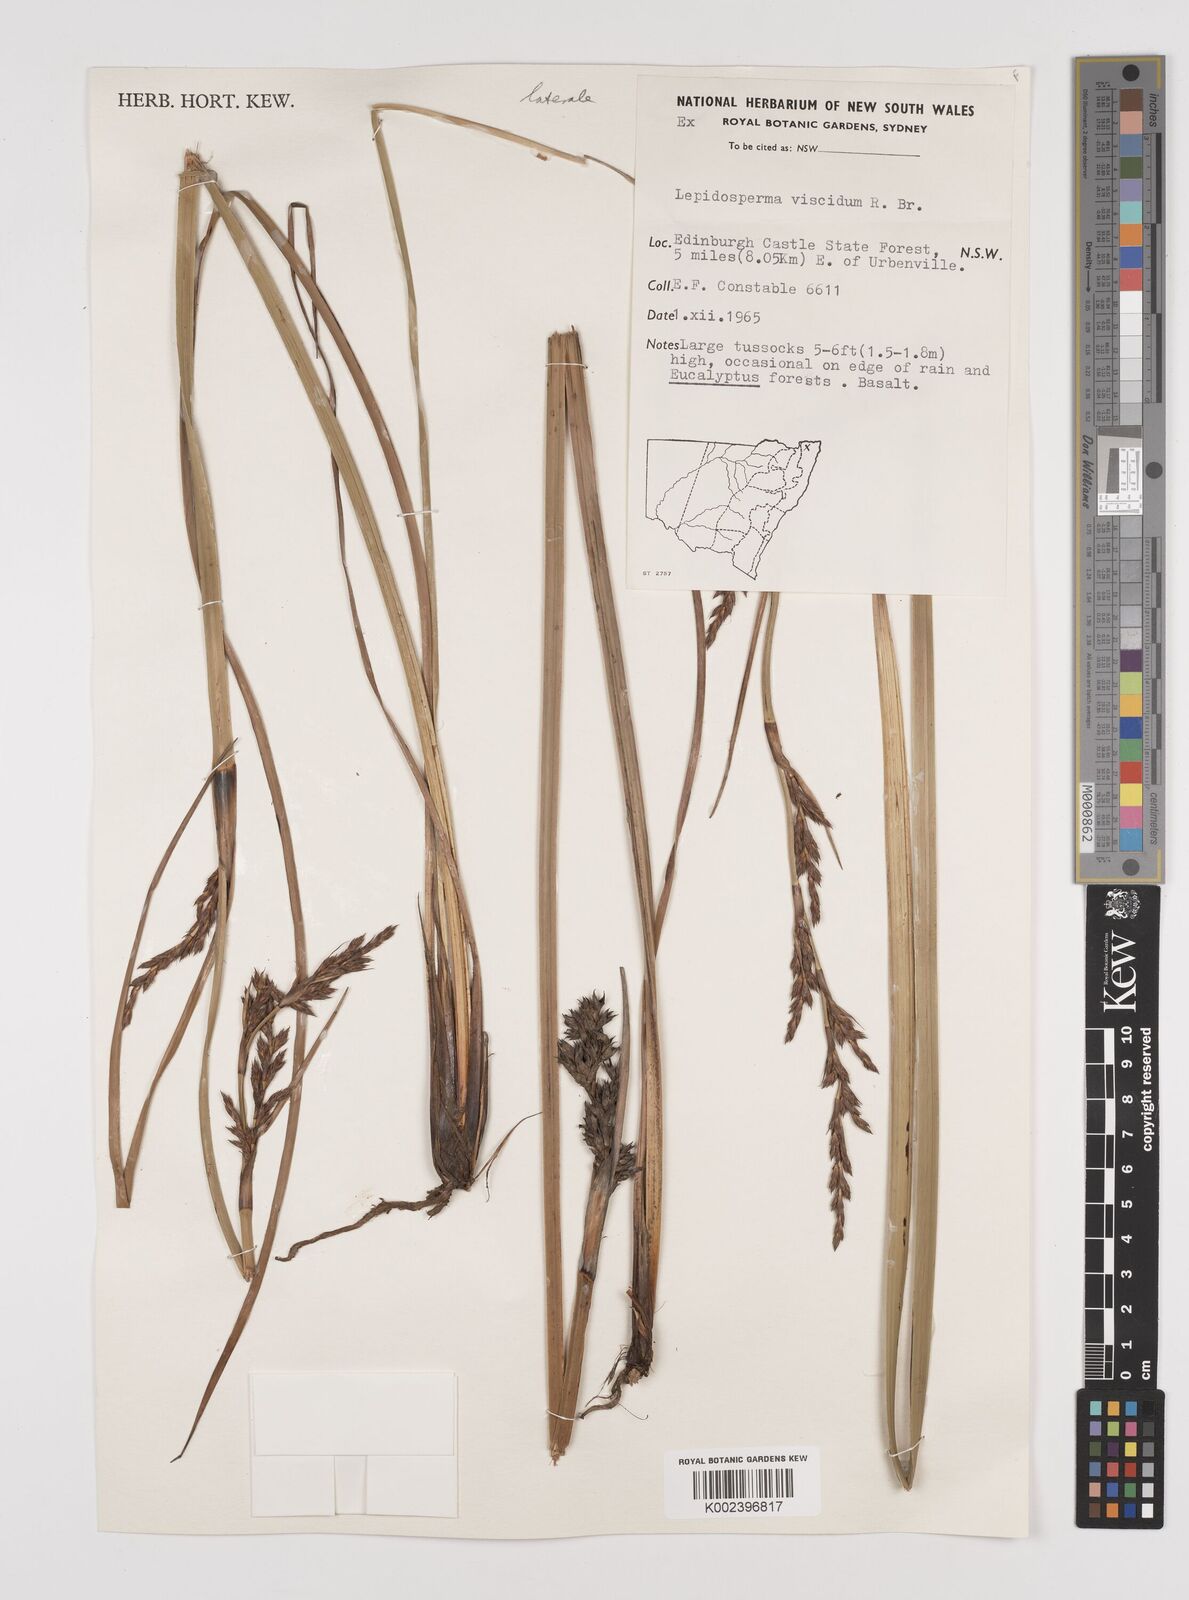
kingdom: Plantae
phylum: Tracheophyta
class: Liliopsida
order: Poales
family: Cyperaceae
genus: Lepidosperma
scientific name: Lepidosperma laterale
